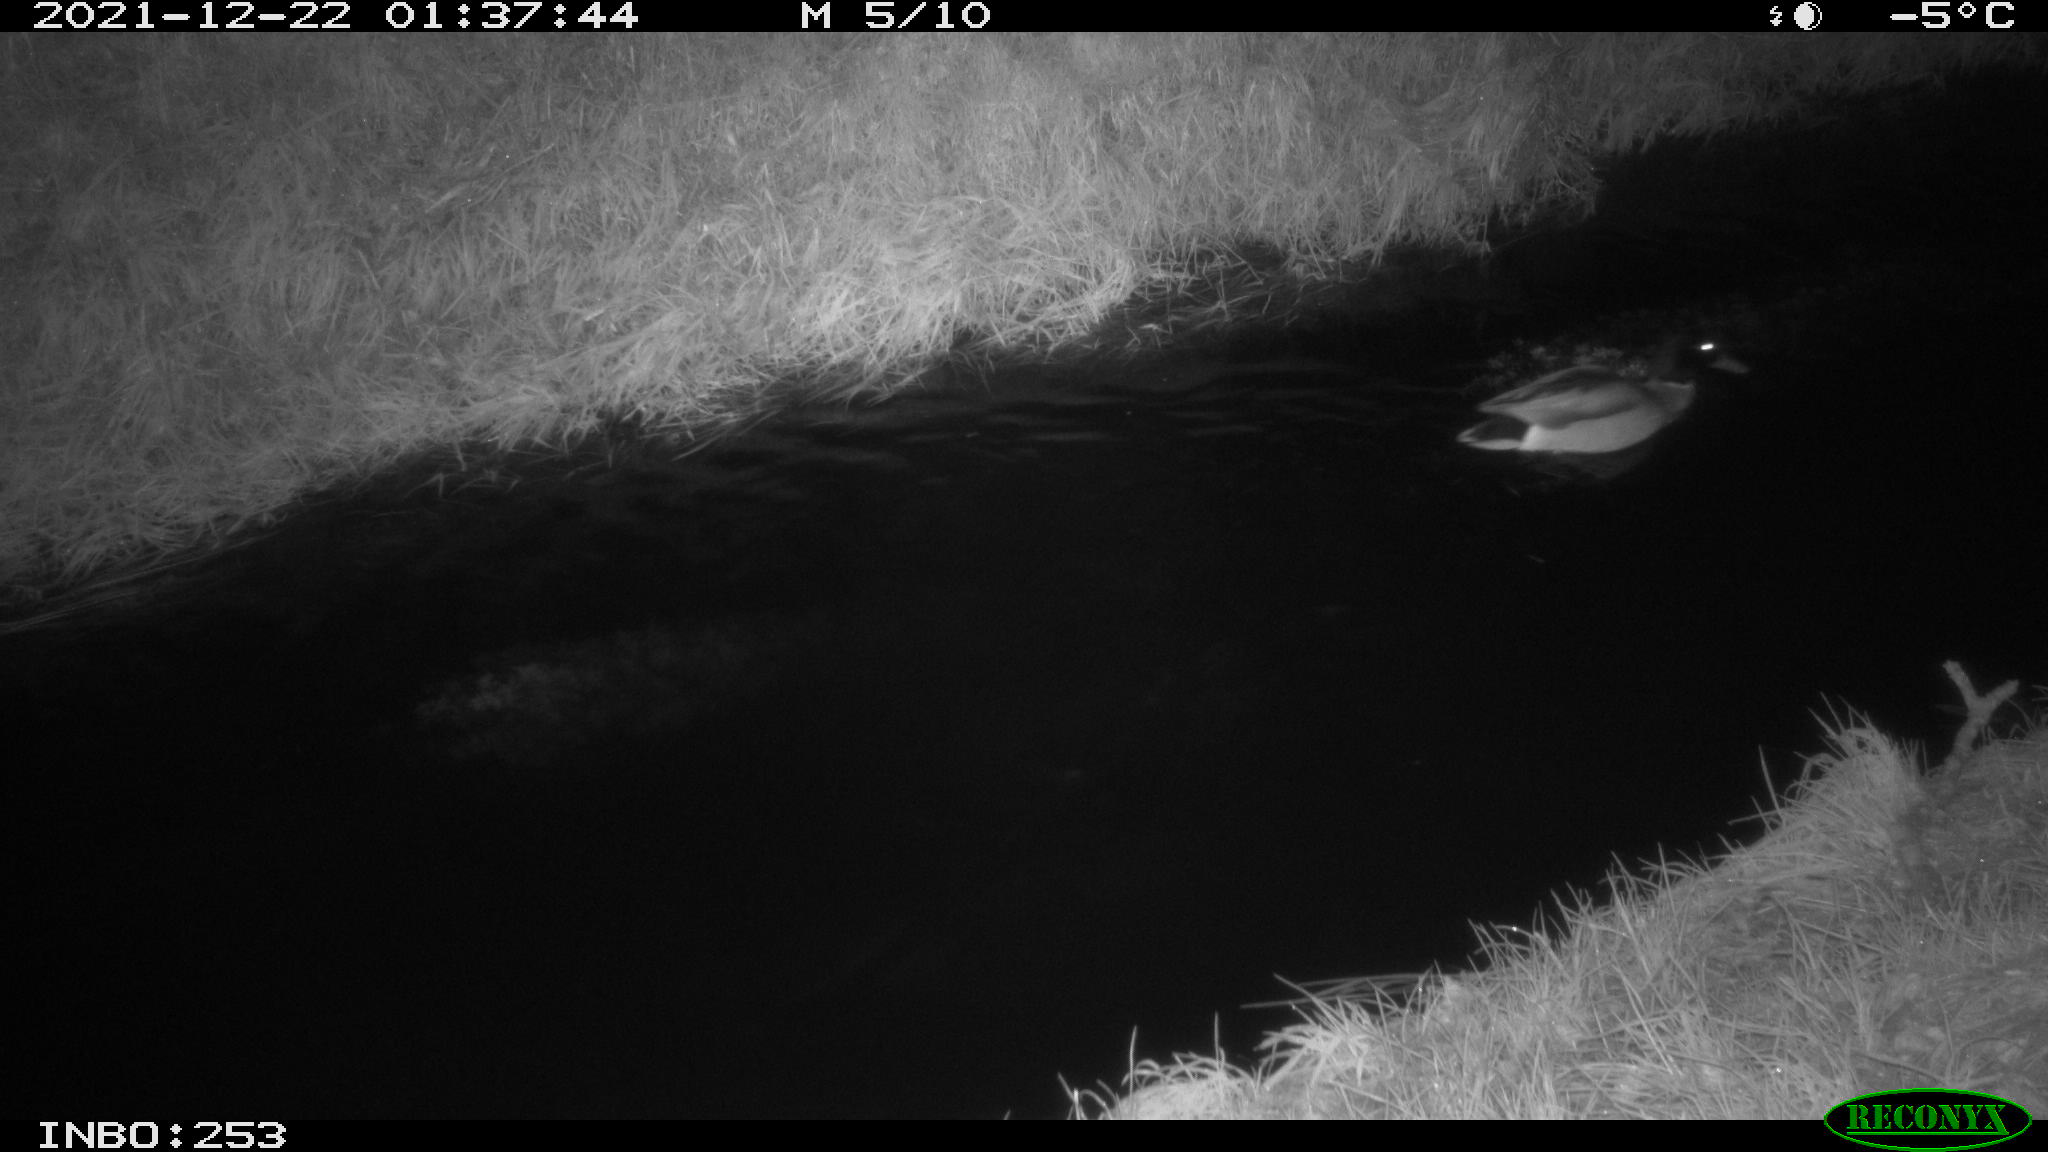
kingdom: Animalia
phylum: Chordata
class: Aves
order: Anseriformes
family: Anatidae
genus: Anas
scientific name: Anas platyrhynchos
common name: Mallard
